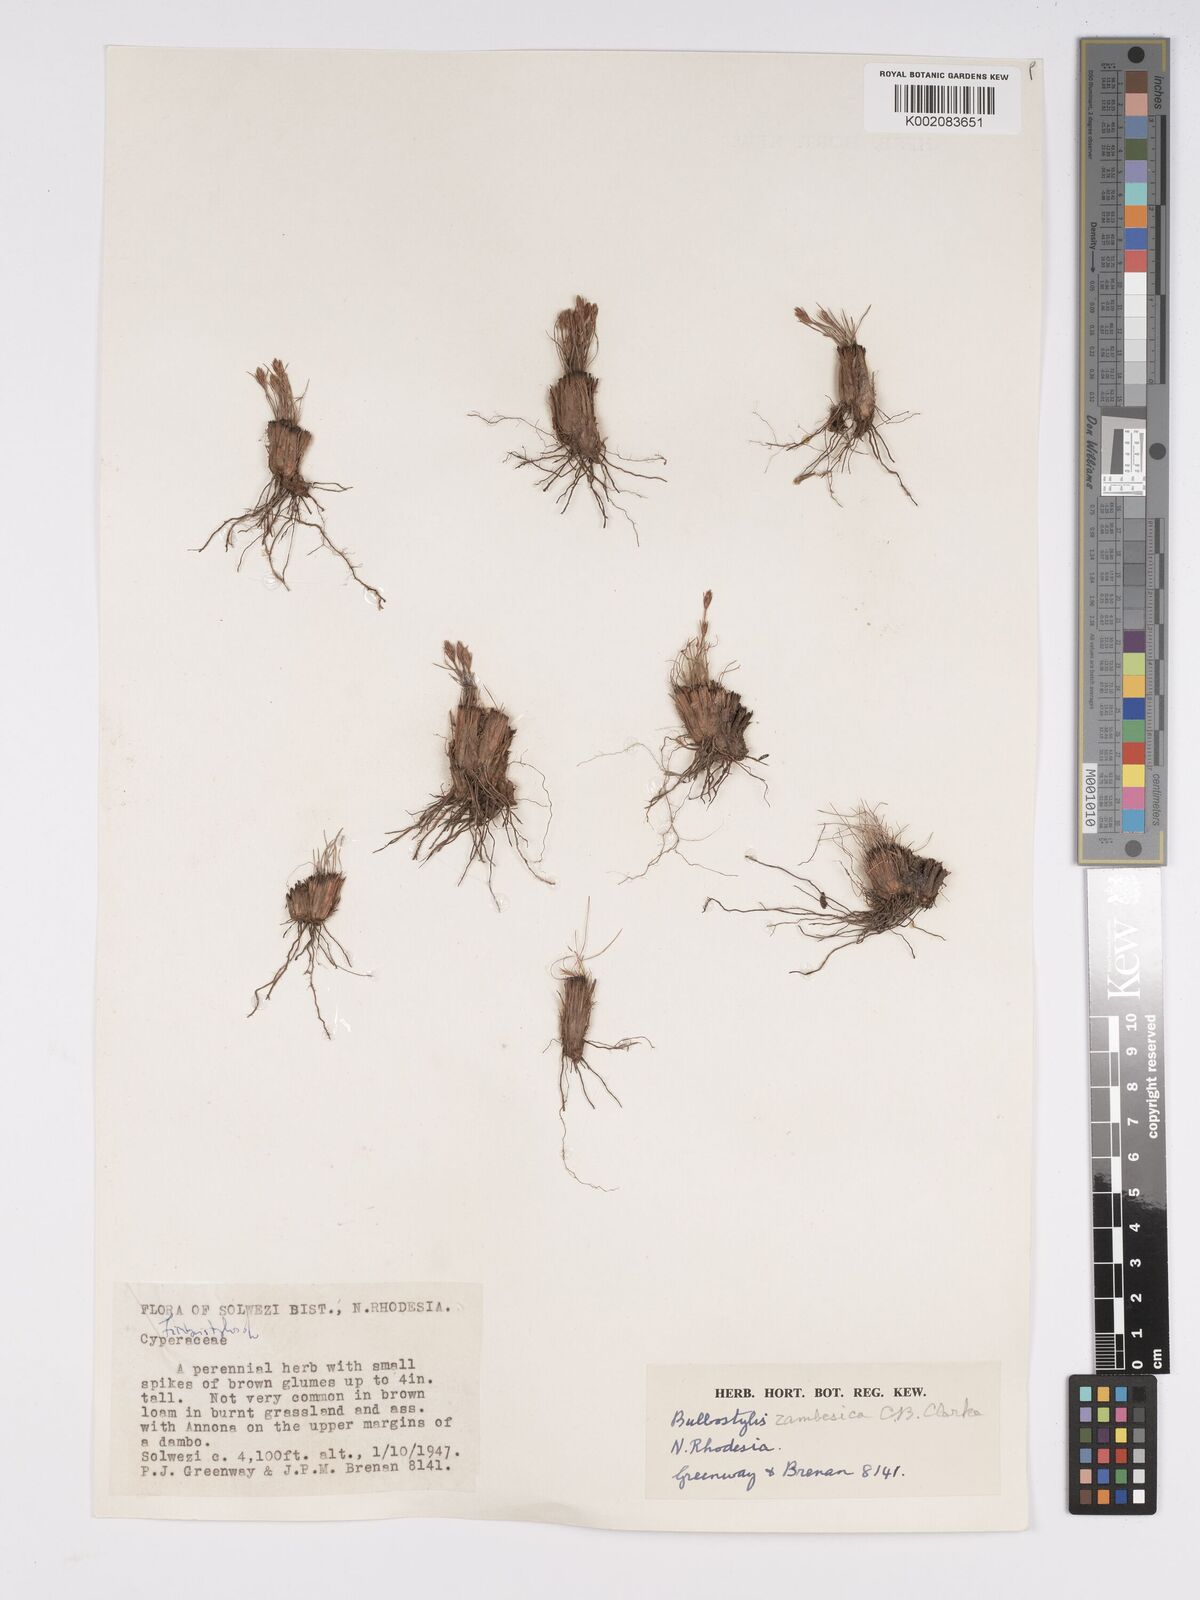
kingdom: Plantae
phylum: Tracheophyta
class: Liliopsida
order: Poales
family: Cyperaceae
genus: Bulbostylis
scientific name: Bulbostylis macra
